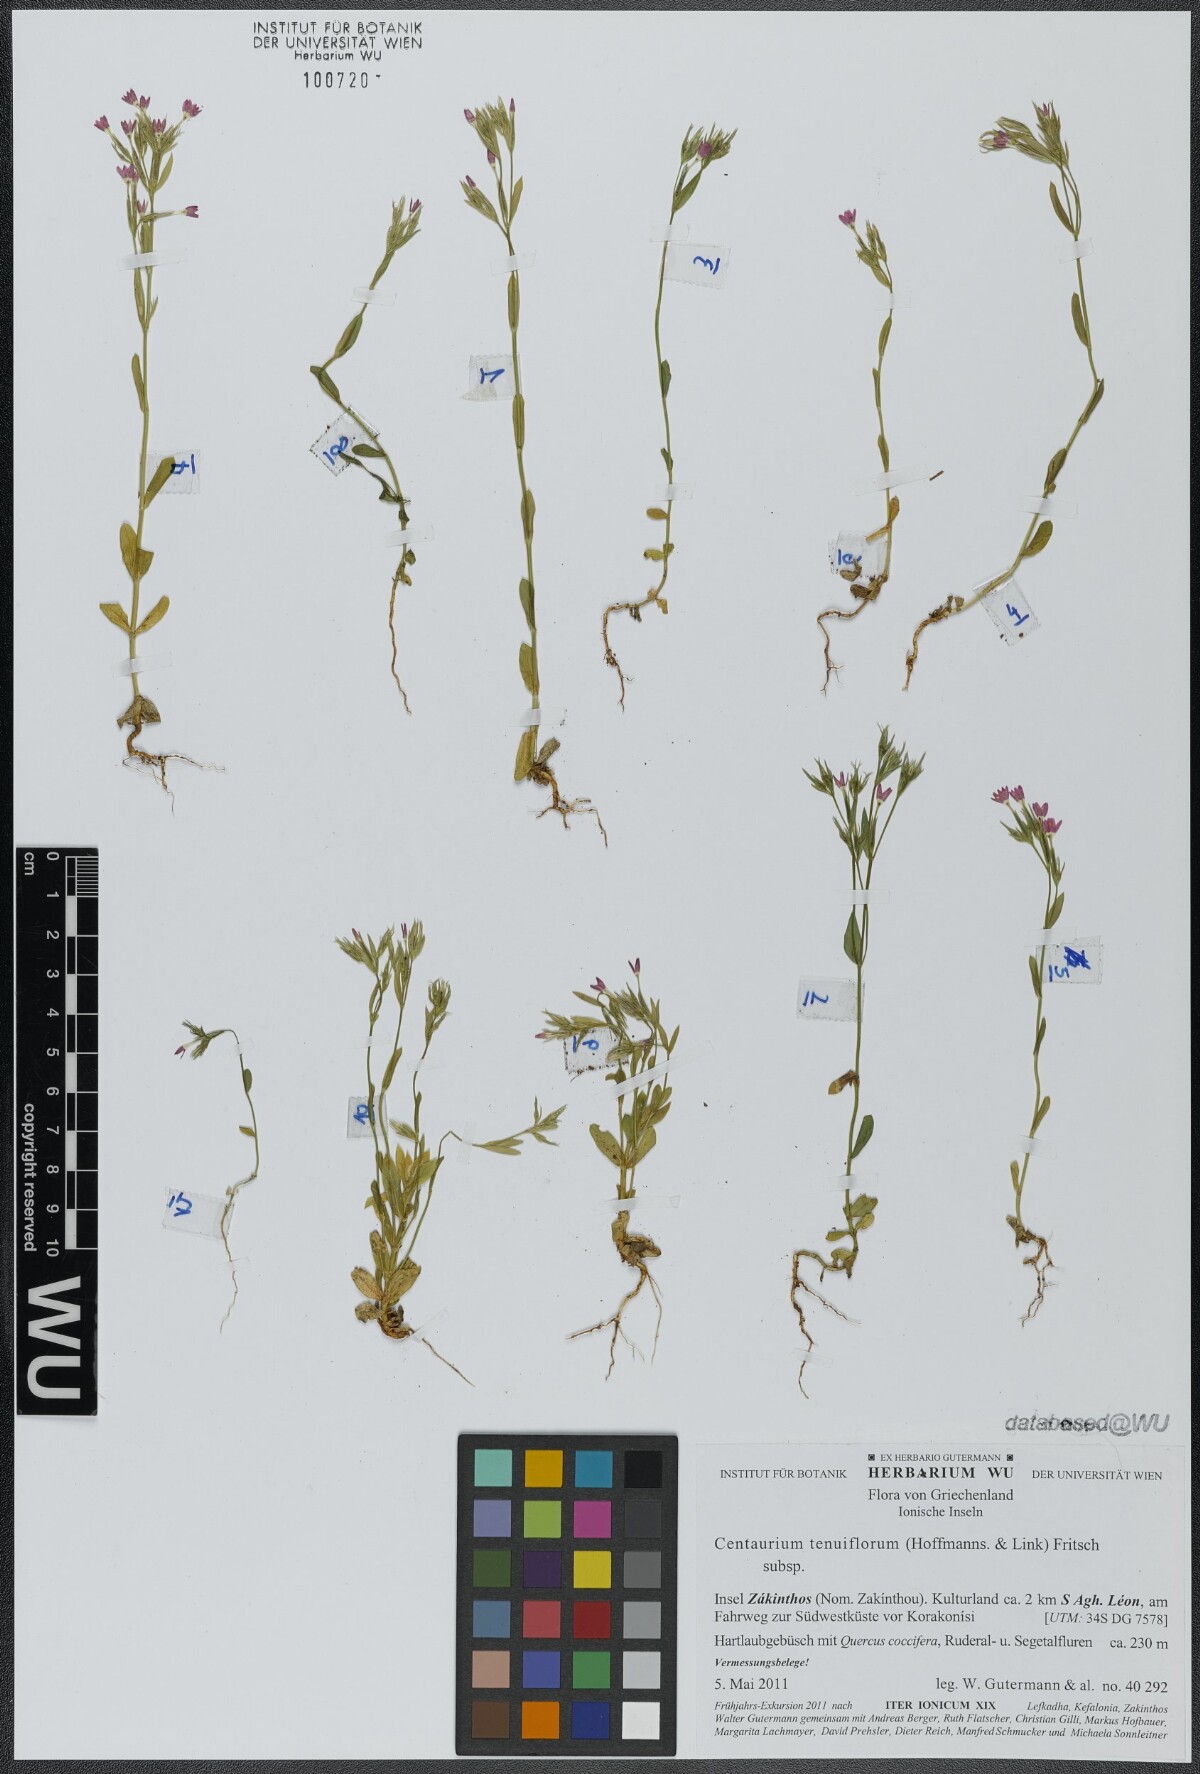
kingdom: Plantae
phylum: Tracheophyta
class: Magnoliopsida
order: Gentianales
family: Gentianaceae
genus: Centaurium
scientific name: Centaurium tenuiflorum
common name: Slender centaury
